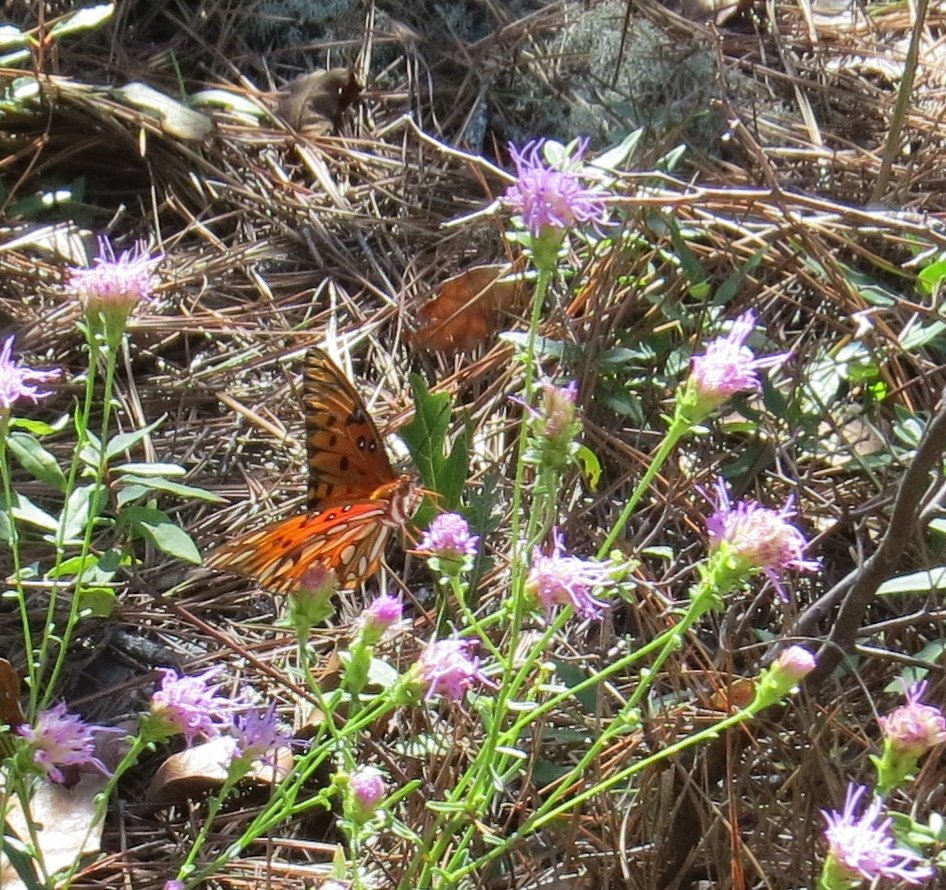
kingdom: Animalia
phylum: Arthropoda
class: Insecta
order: Lepidoptera
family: Nymphalidae
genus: Dione
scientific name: Dione vanillae
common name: Gulf Fritillary
